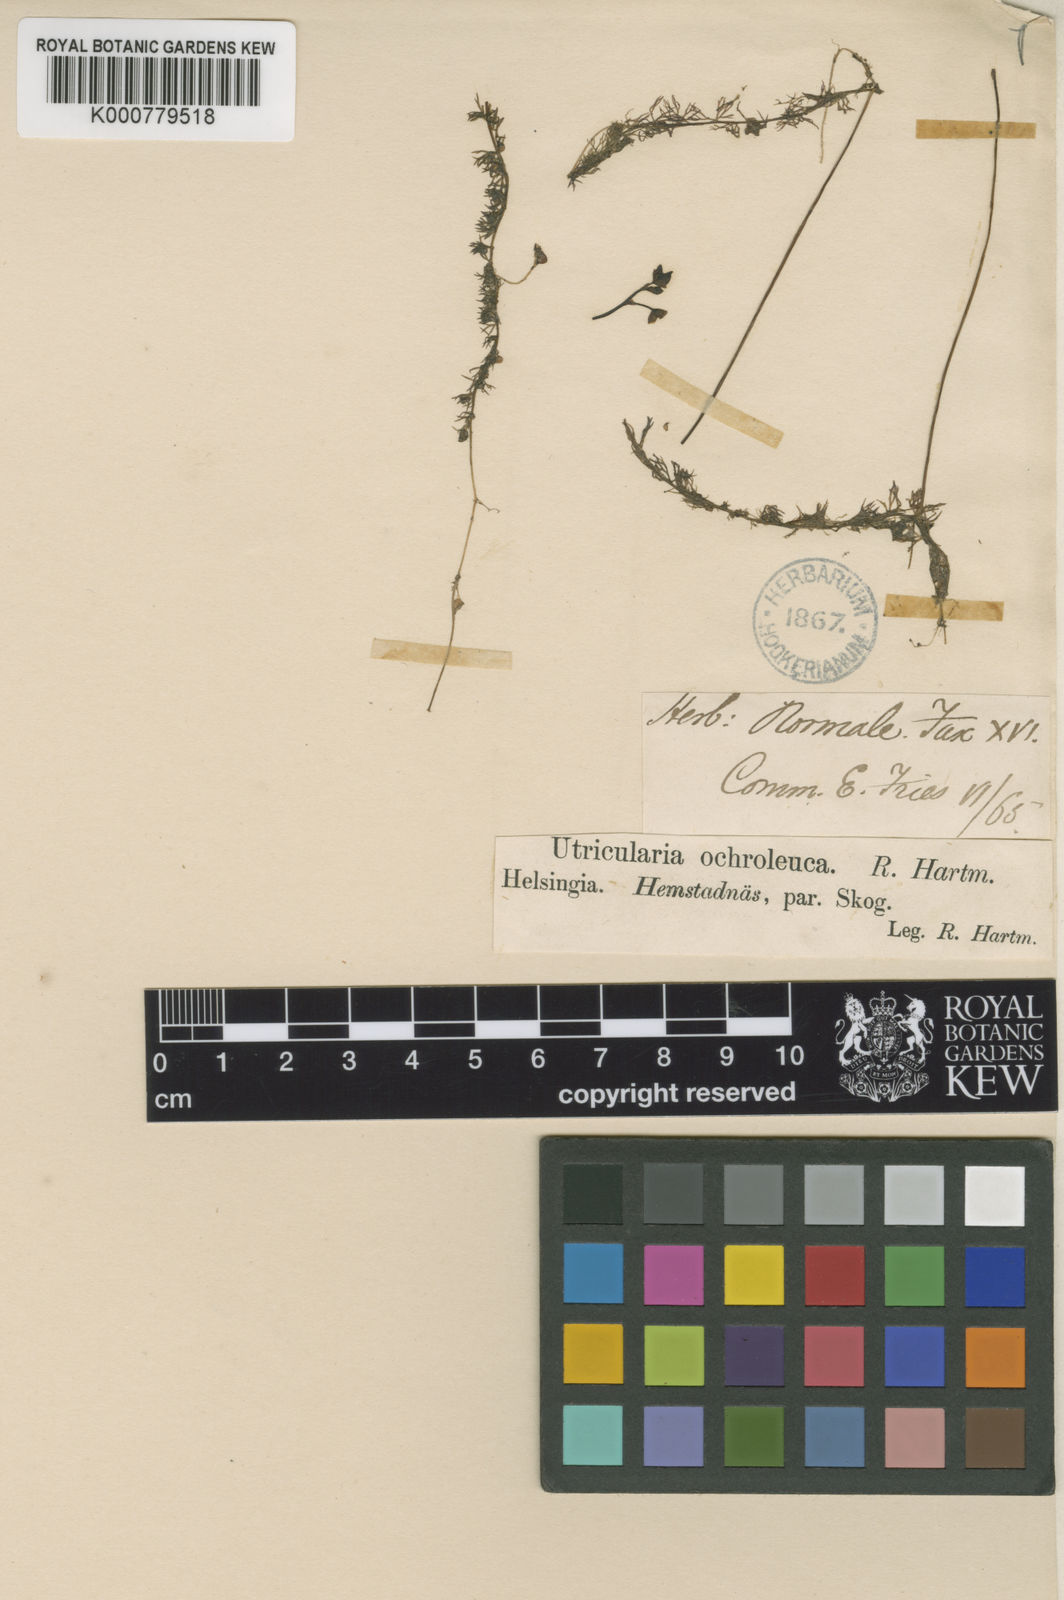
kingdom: Plantae
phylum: Tracheophyta
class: Magnoliopsida
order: Lamiales
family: Lentibulariaceae
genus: Utricularia
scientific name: Utricularia ochroleuca
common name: Pale bladderwort
